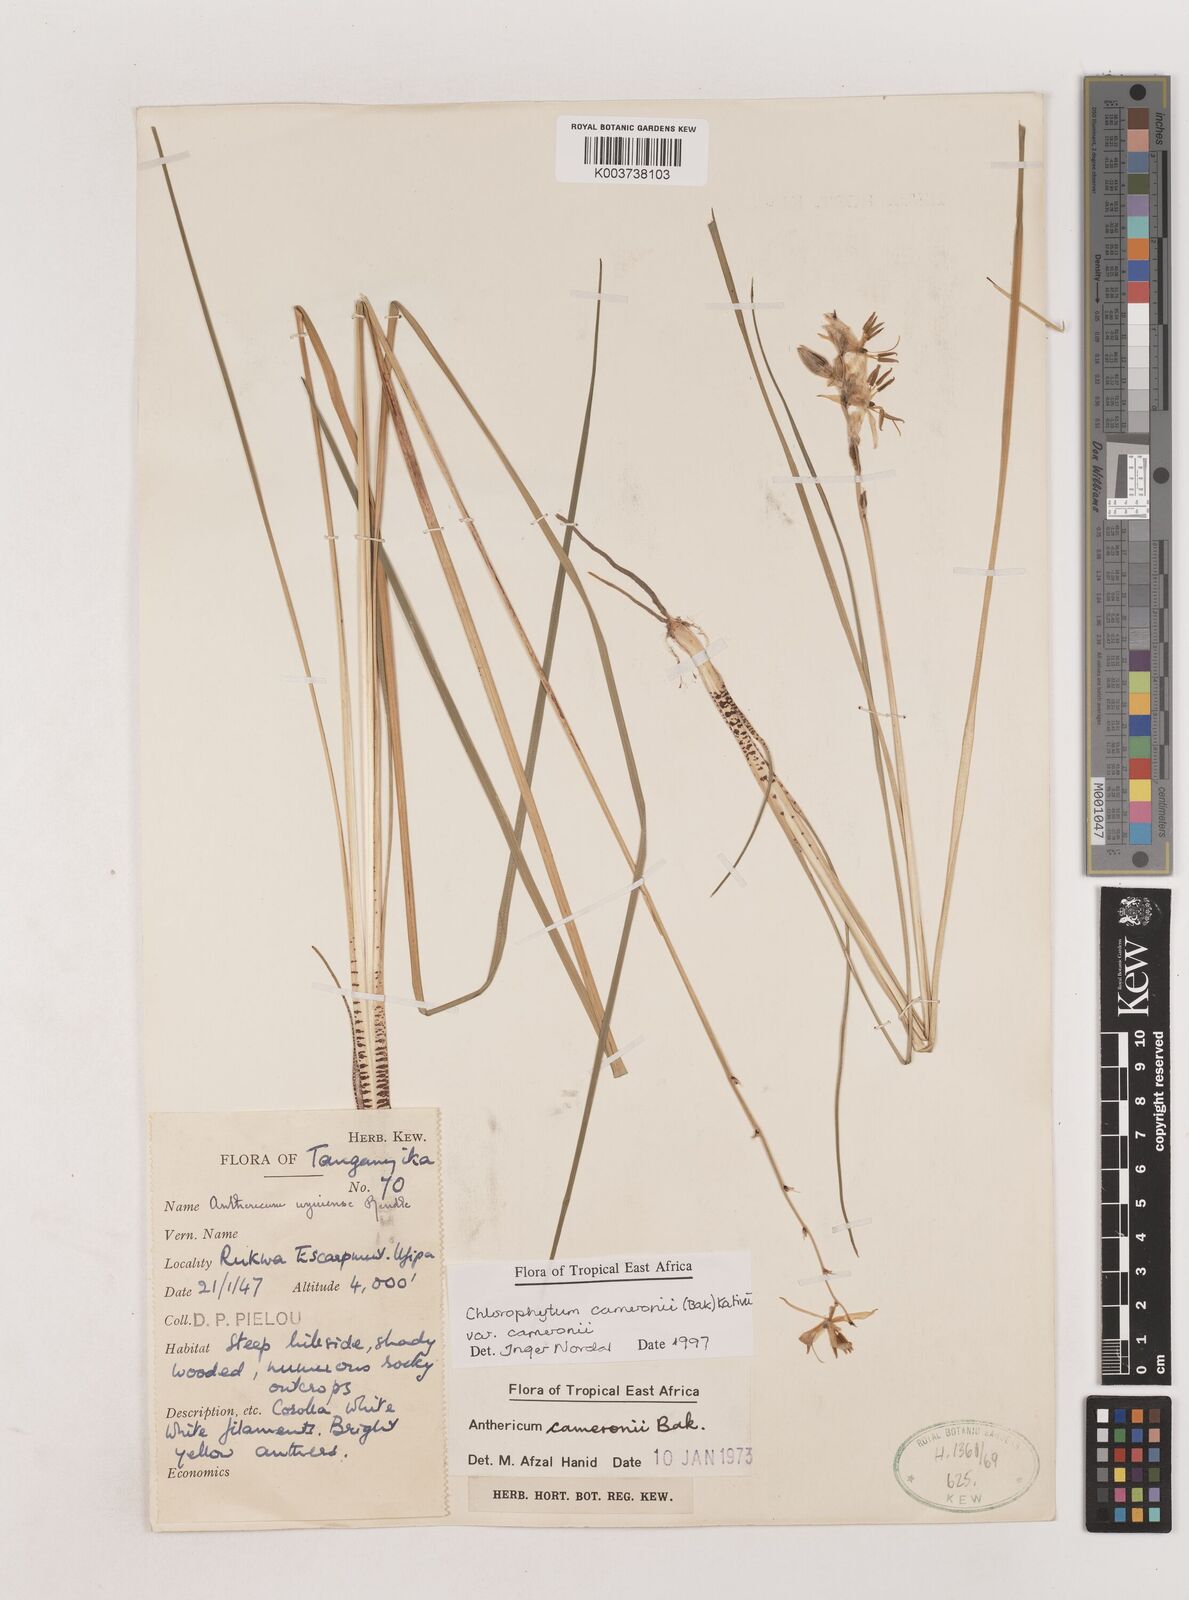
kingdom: Plantae
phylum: Tracheophyta
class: Liliopsida
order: Asparagales
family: Asparagaceae
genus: Chlorophytum
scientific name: Chlorophytum cameronii
